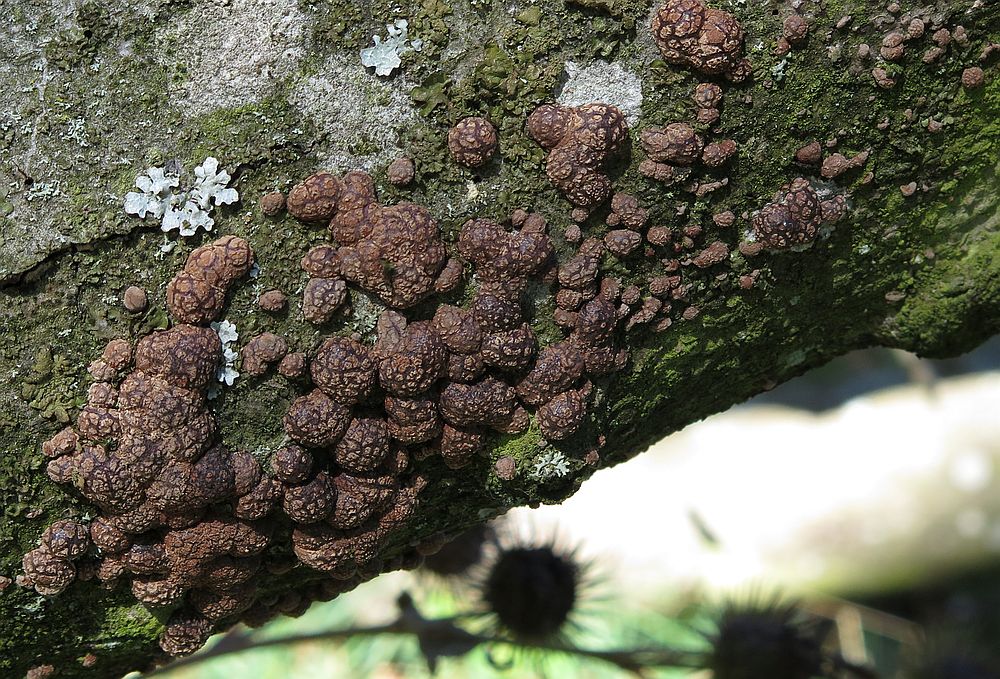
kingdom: Fungi
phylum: Ascomycota
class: Sordariomycetes
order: Xylariales
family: Hypoxylaceae
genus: Hypoxylon
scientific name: Hypoxylon fragiforme
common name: kuljordbær
